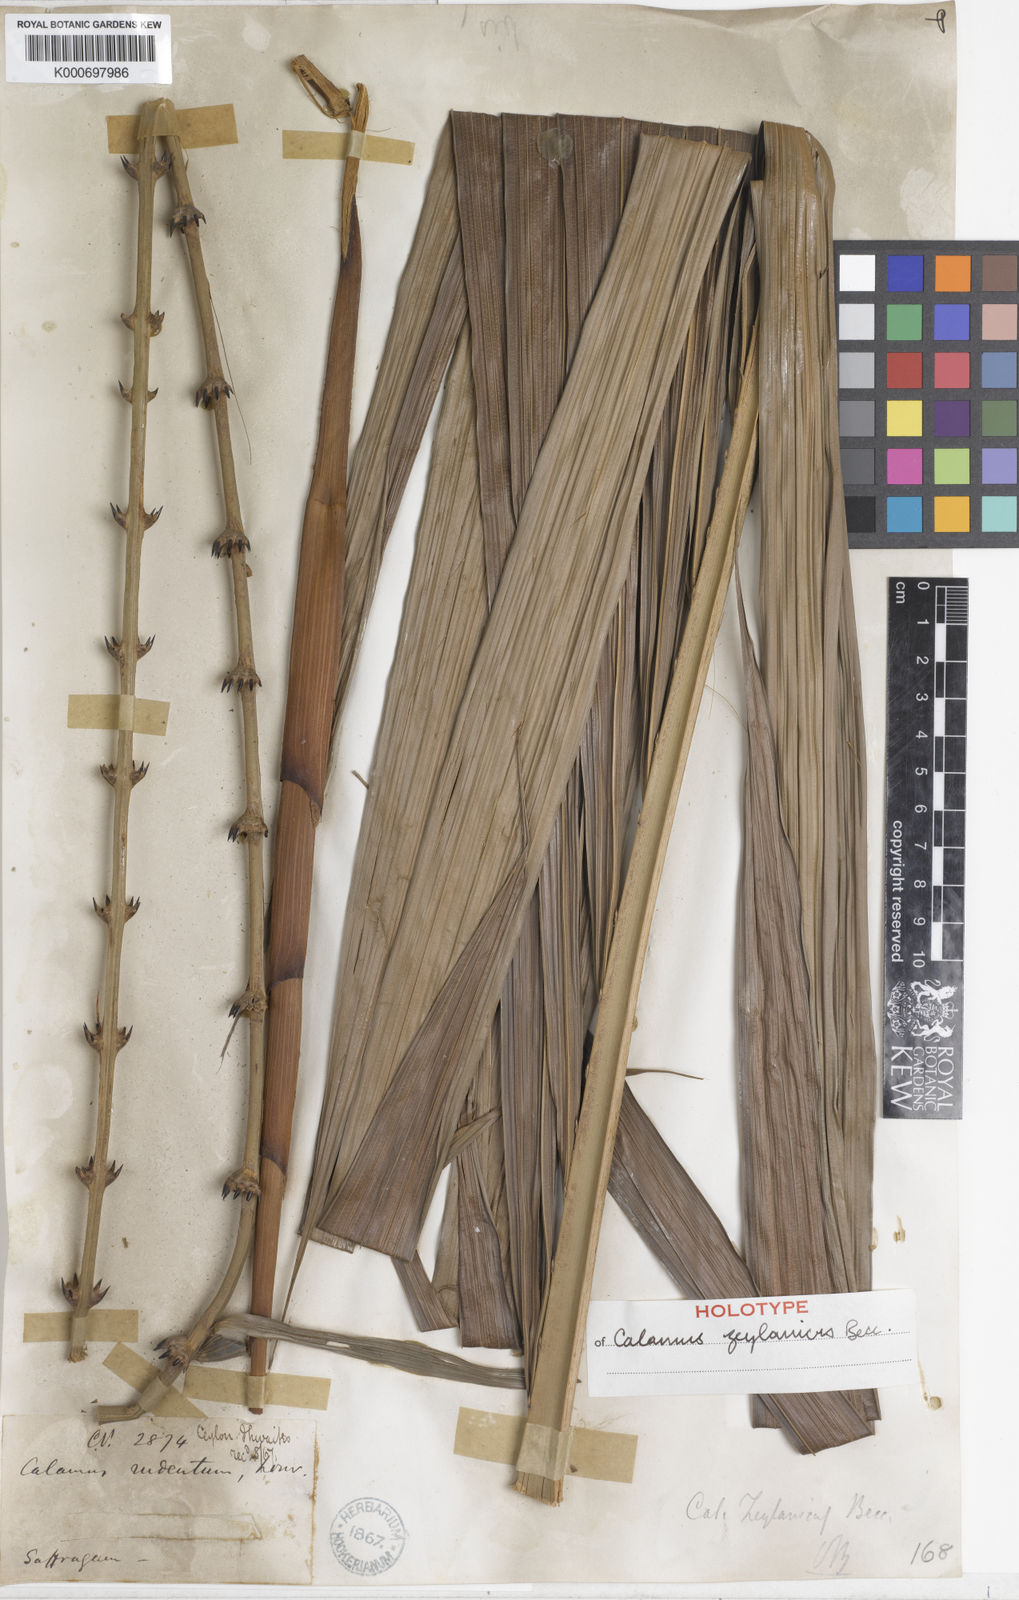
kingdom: Plantae
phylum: Tracheophyta
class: Liliopsida
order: Arecales
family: Arecaceae
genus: Calamus
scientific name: Calamus zeylanicus
